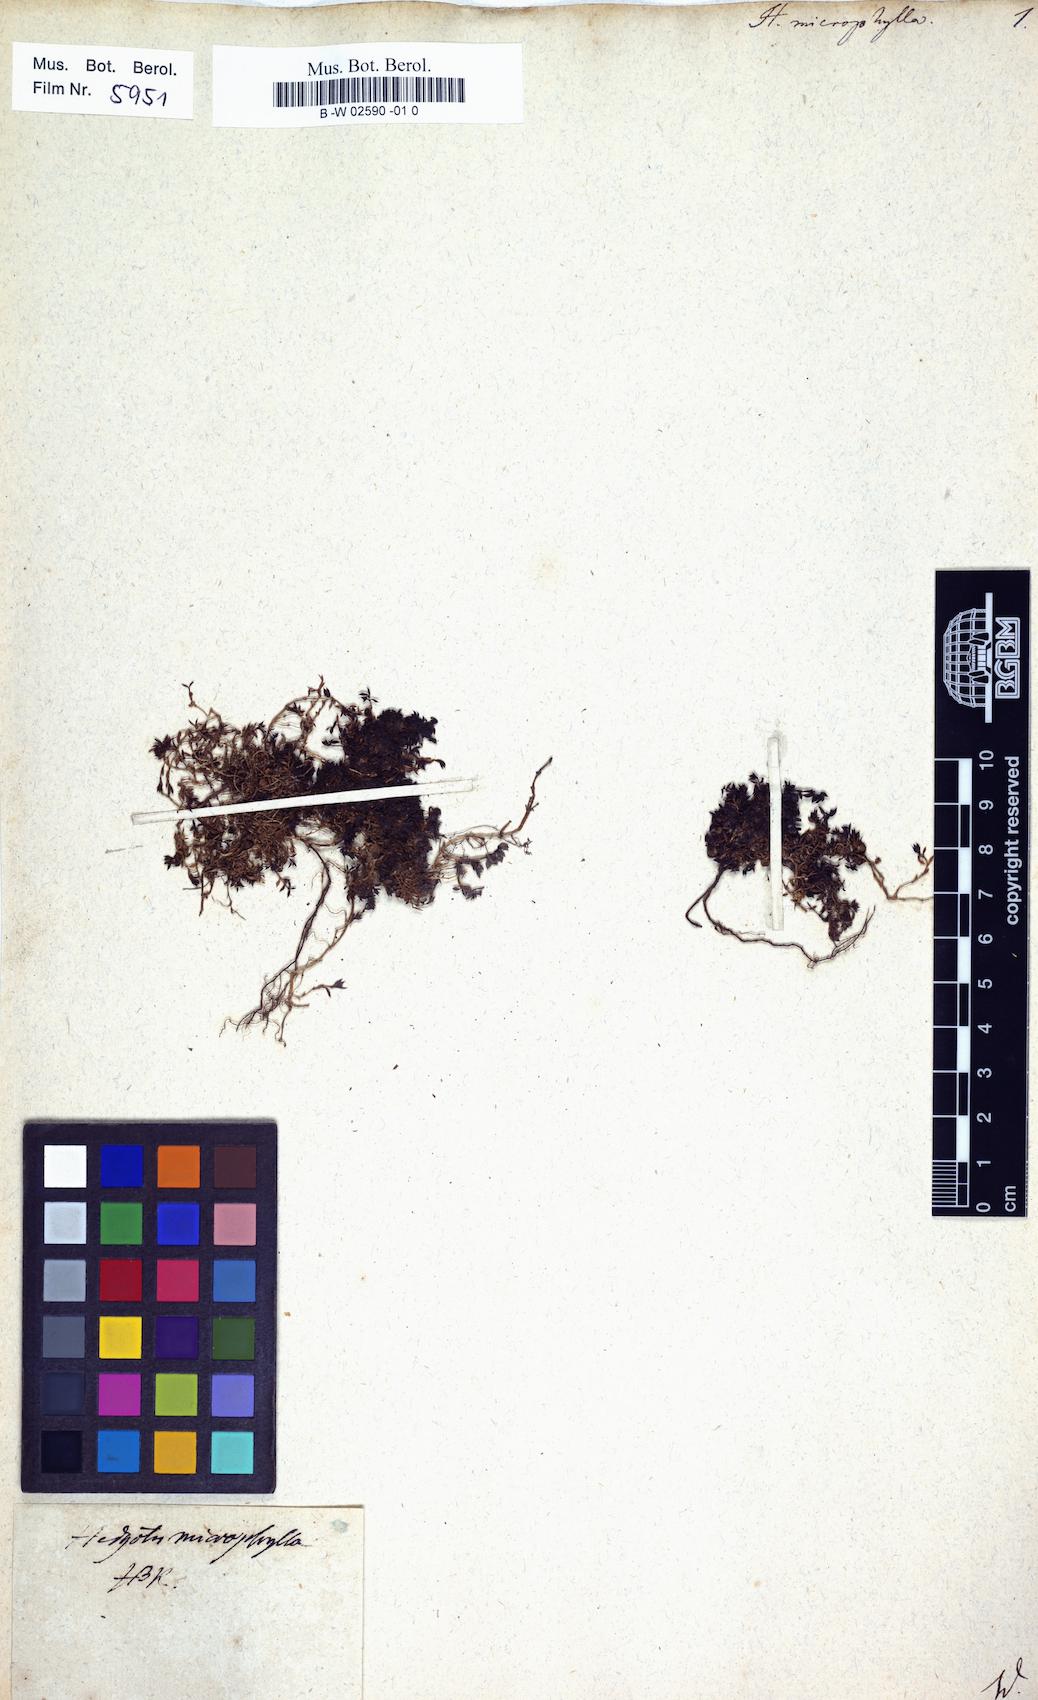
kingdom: Plantae
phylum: Tracheophyta
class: Magnoliopsida
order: Gentianales
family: Rubiaceae
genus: Arcytophyllum
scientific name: Arcytophyllum filiforme
